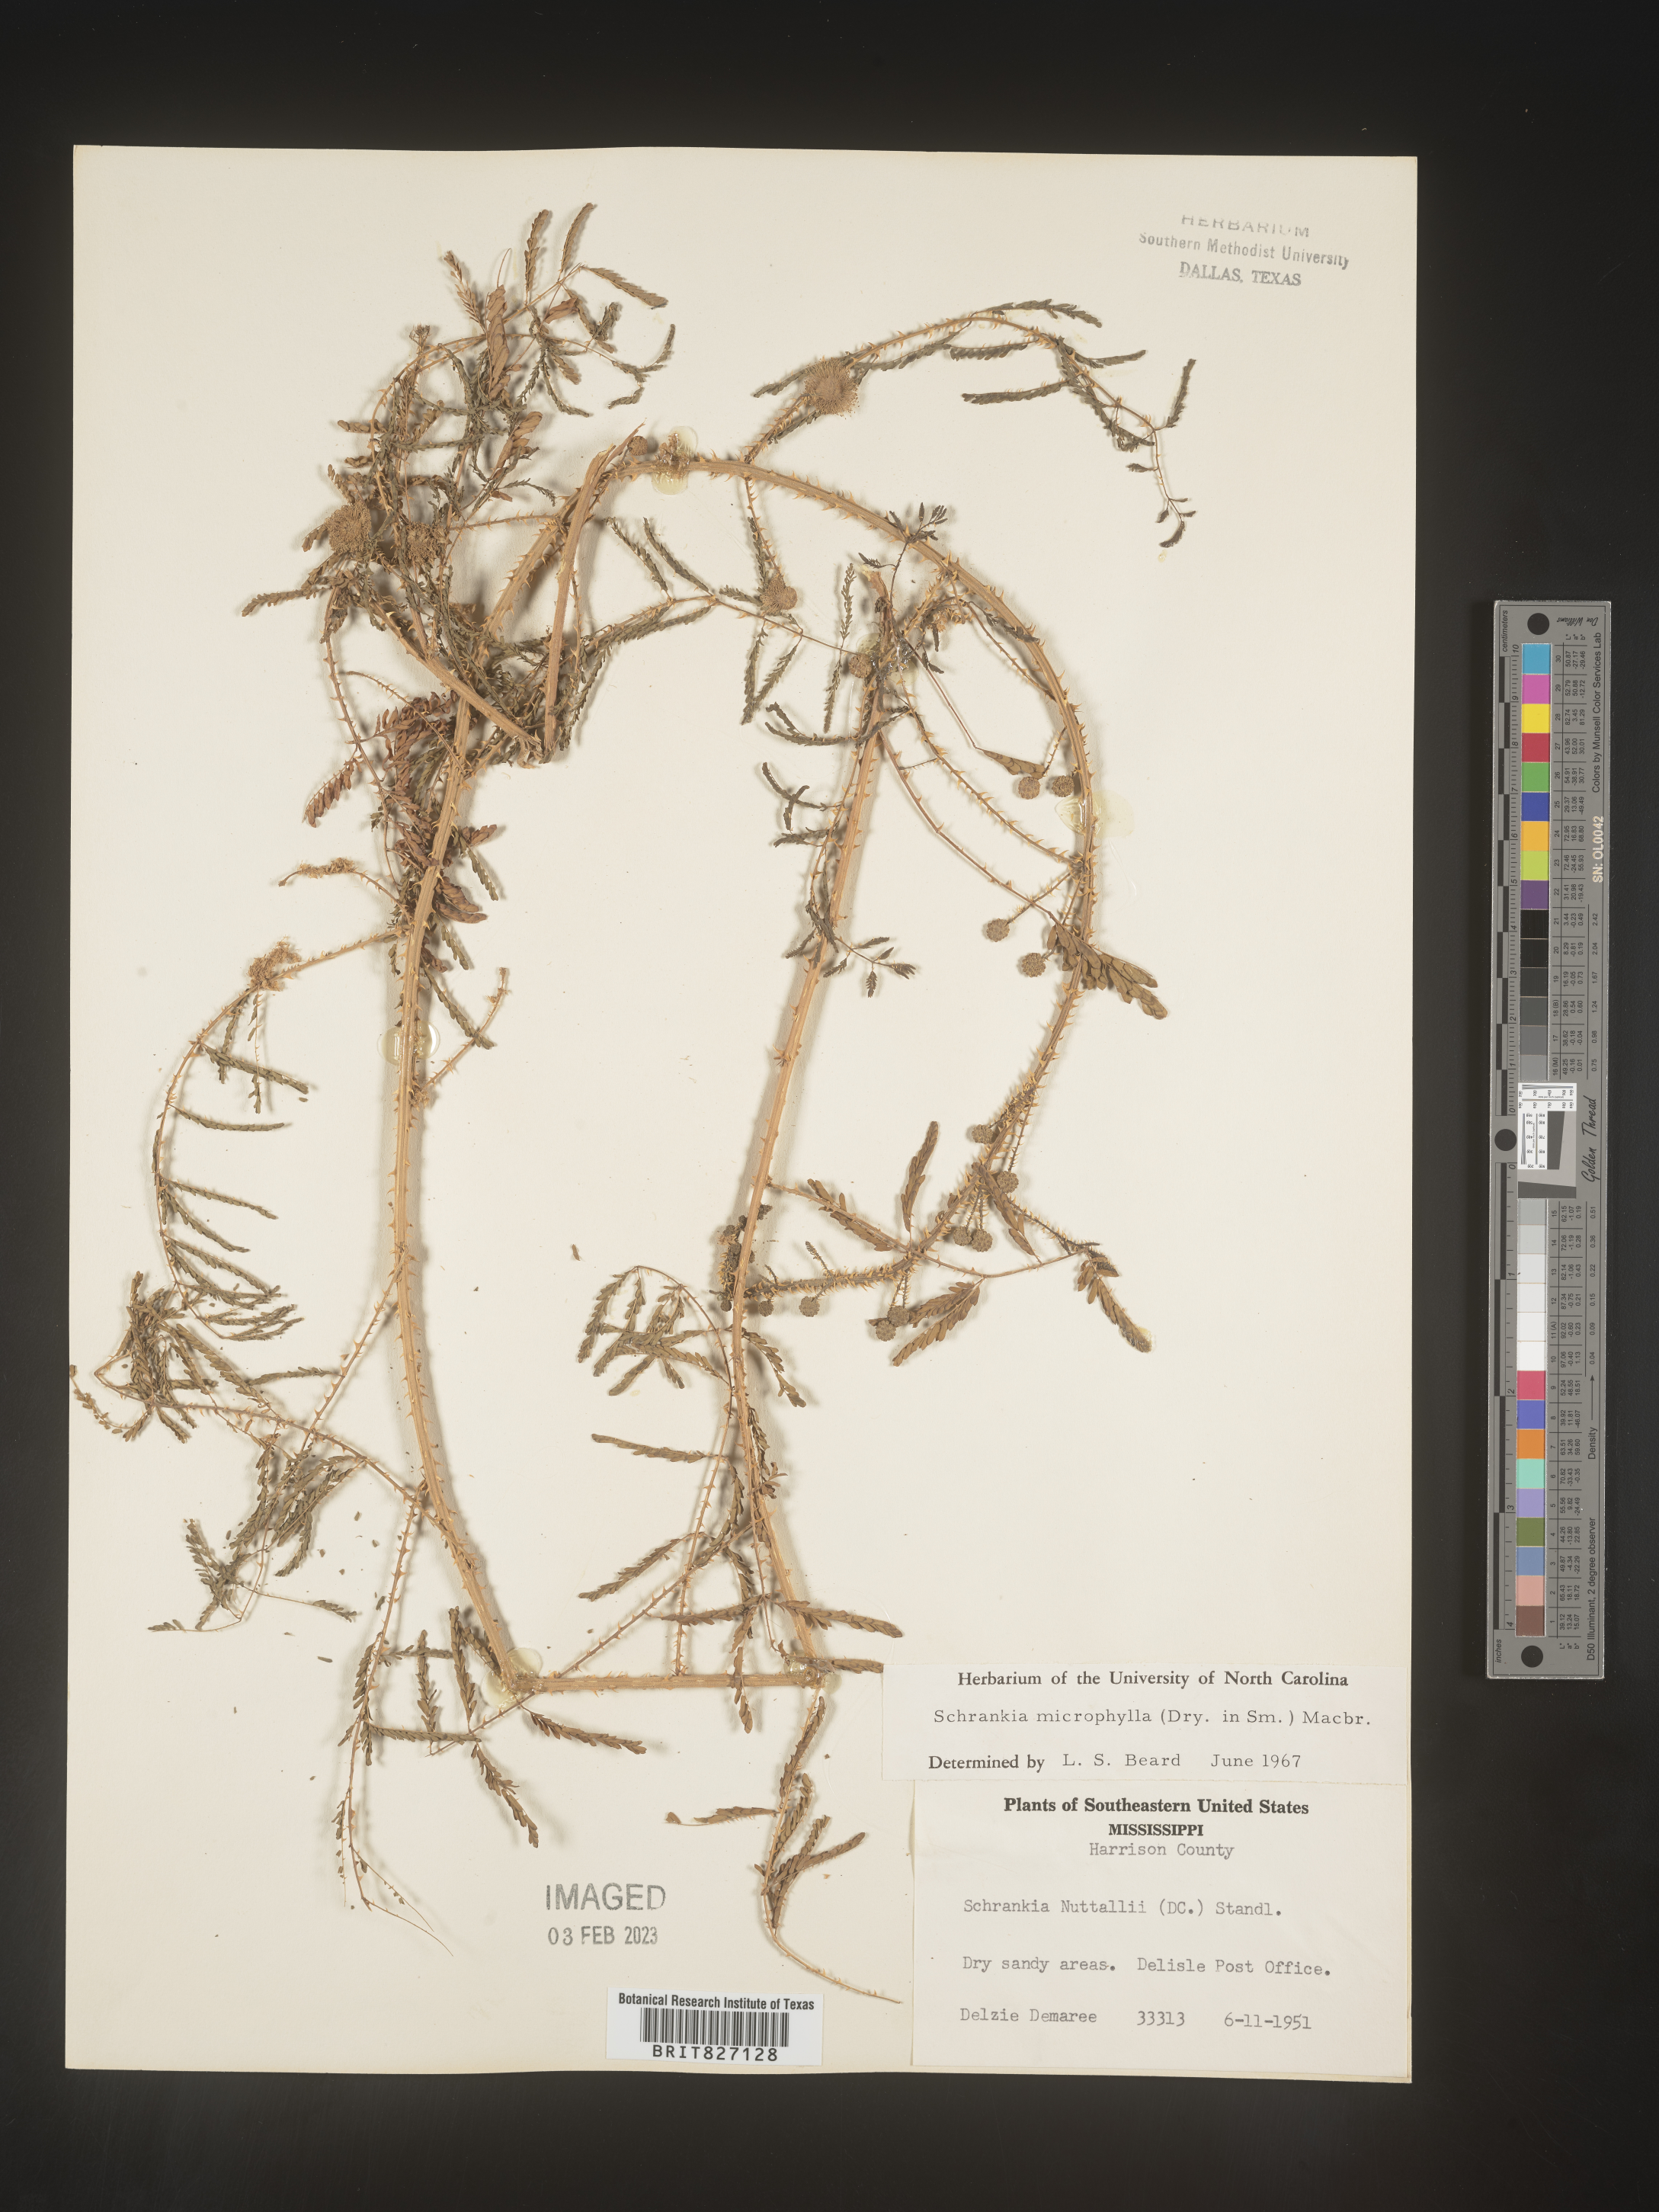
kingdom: Plantae
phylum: Tracheophyta
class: Magnoliopsida
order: Fabales
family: Fabaceae
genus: Mimosa
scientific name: Mimosa quadrivalvis
